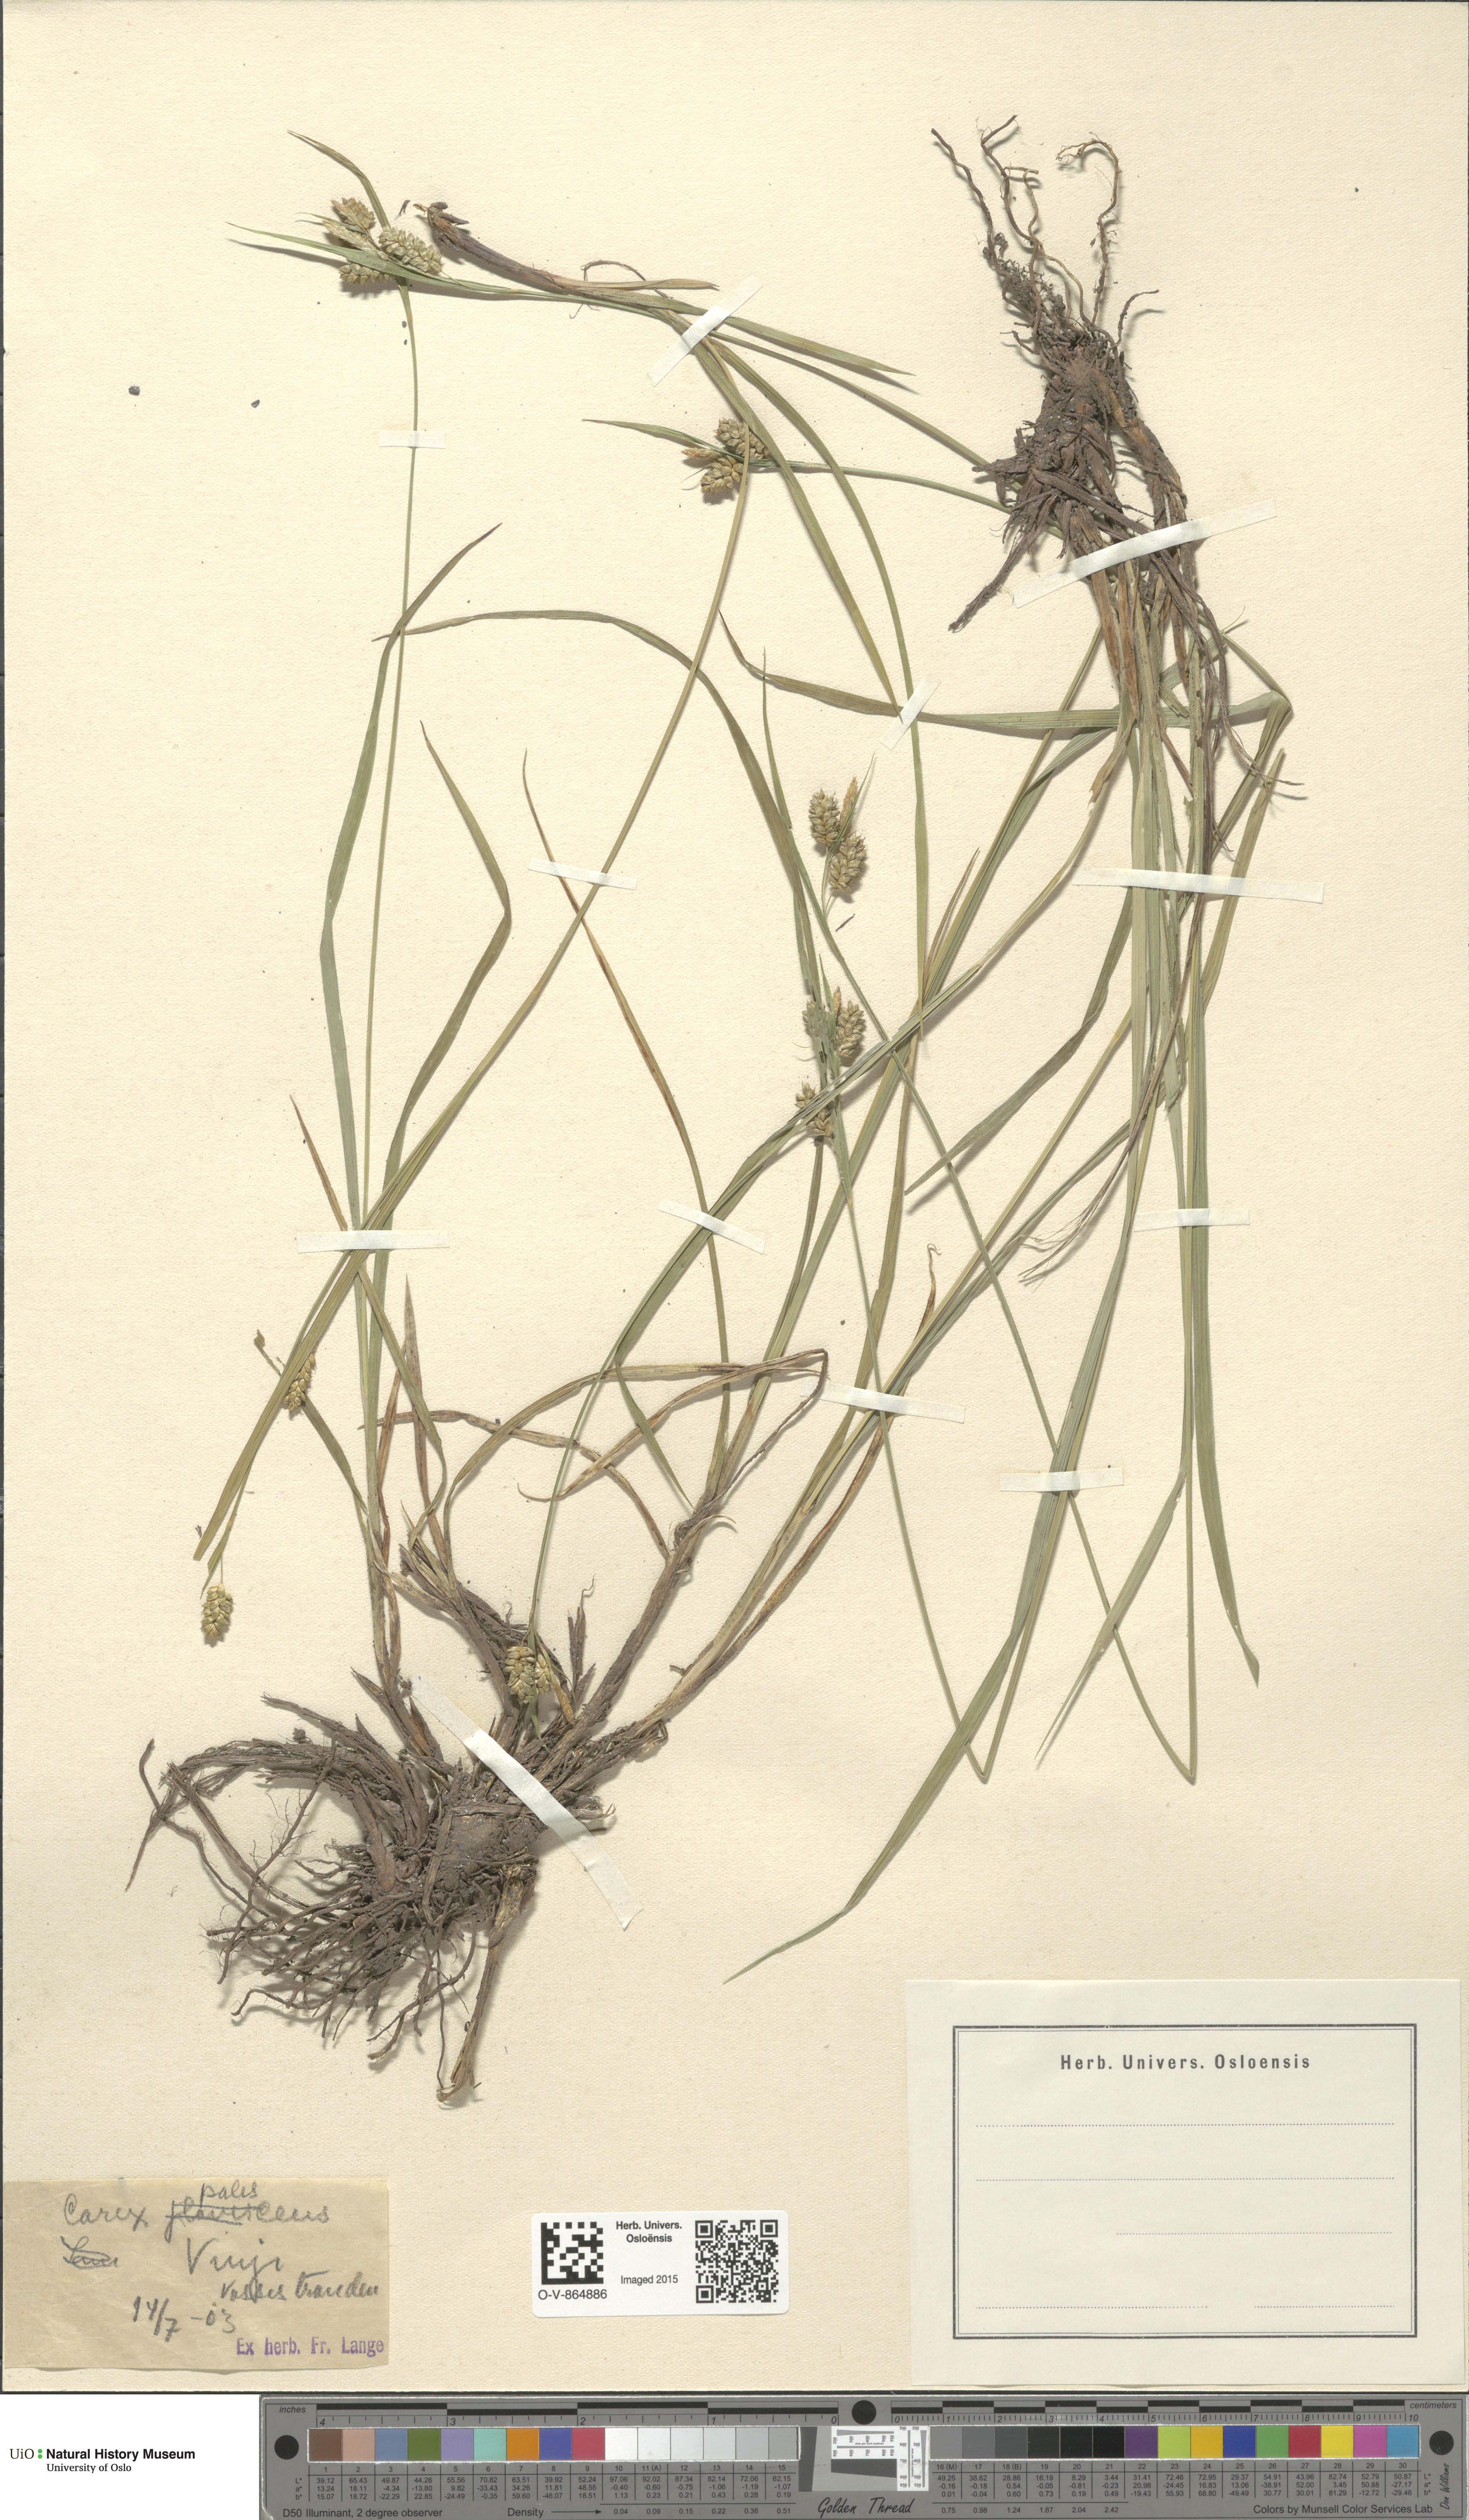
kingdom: Plantae
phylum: Tracheophyta
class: Liliopsida
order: Poales
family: Cyperaceae
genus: Carex
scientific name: Carex pallescens
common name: Pale sedge
